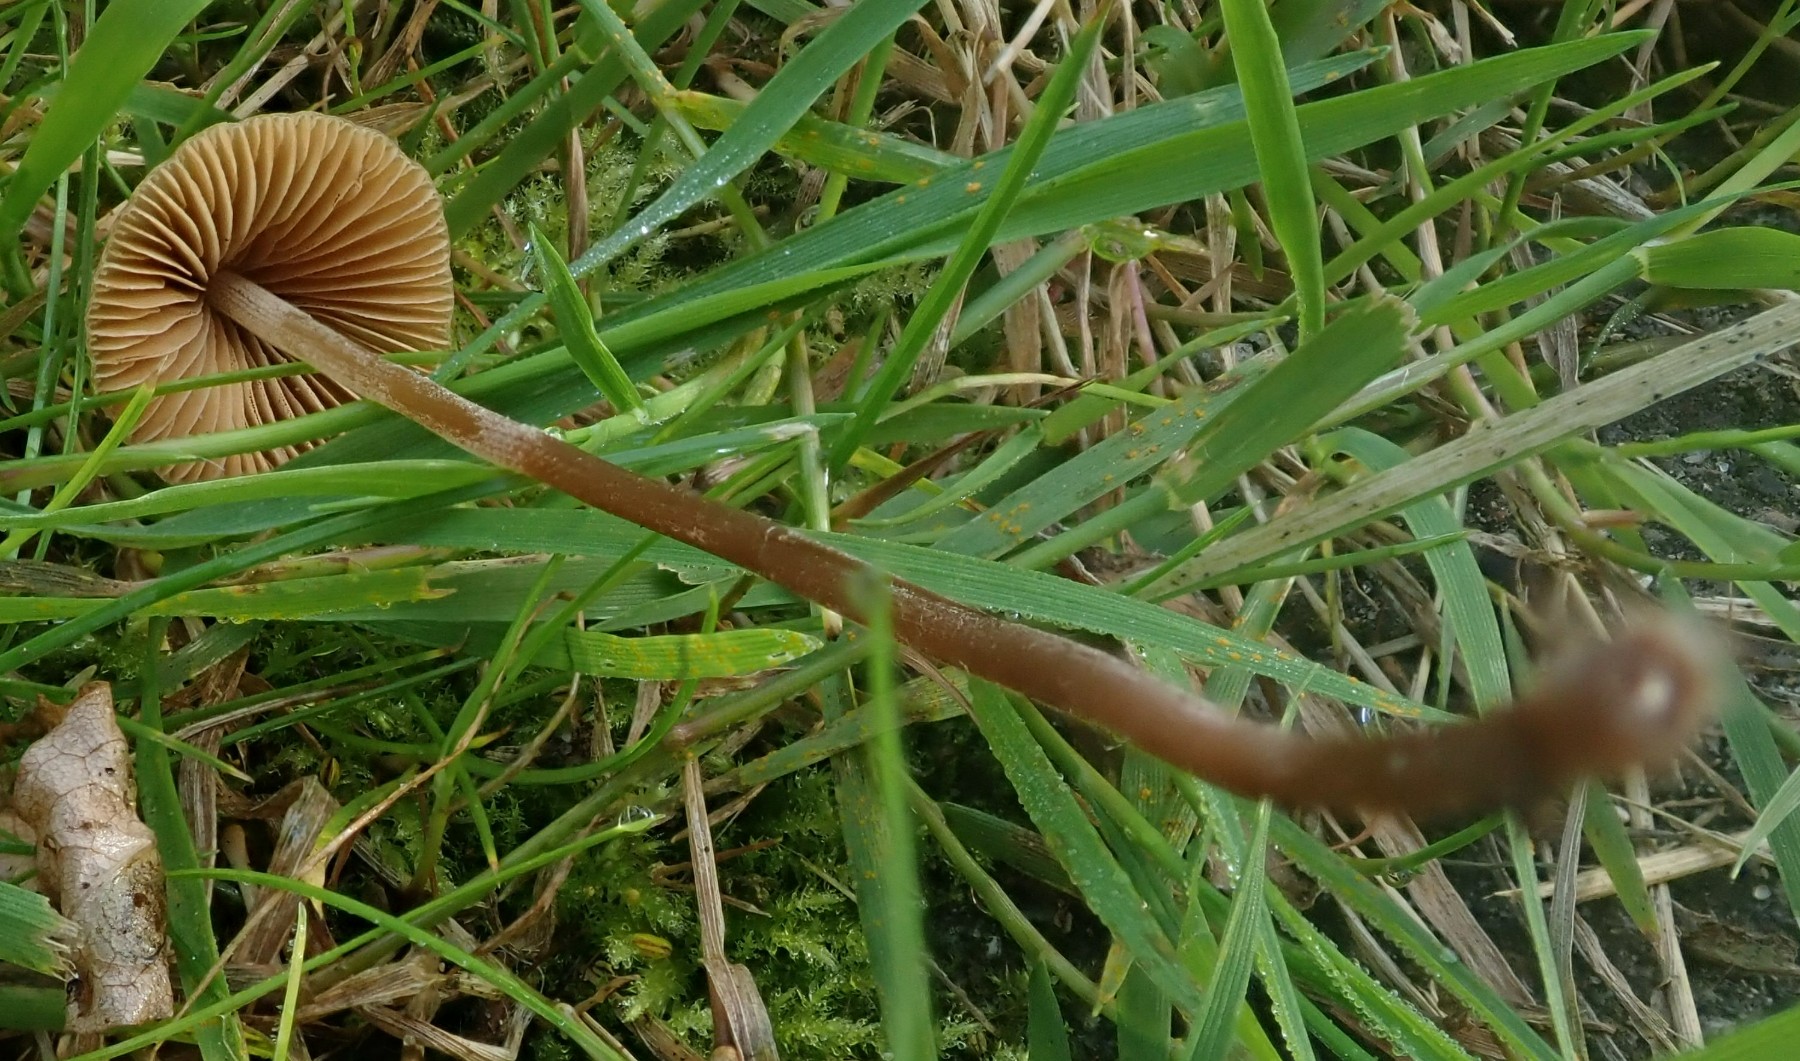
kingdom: Fungi
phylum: Basidiomycota
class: Agaricomycetes
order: Agaricales
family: Bolbitiaceae
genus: Conocybe
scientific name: Conocybe
